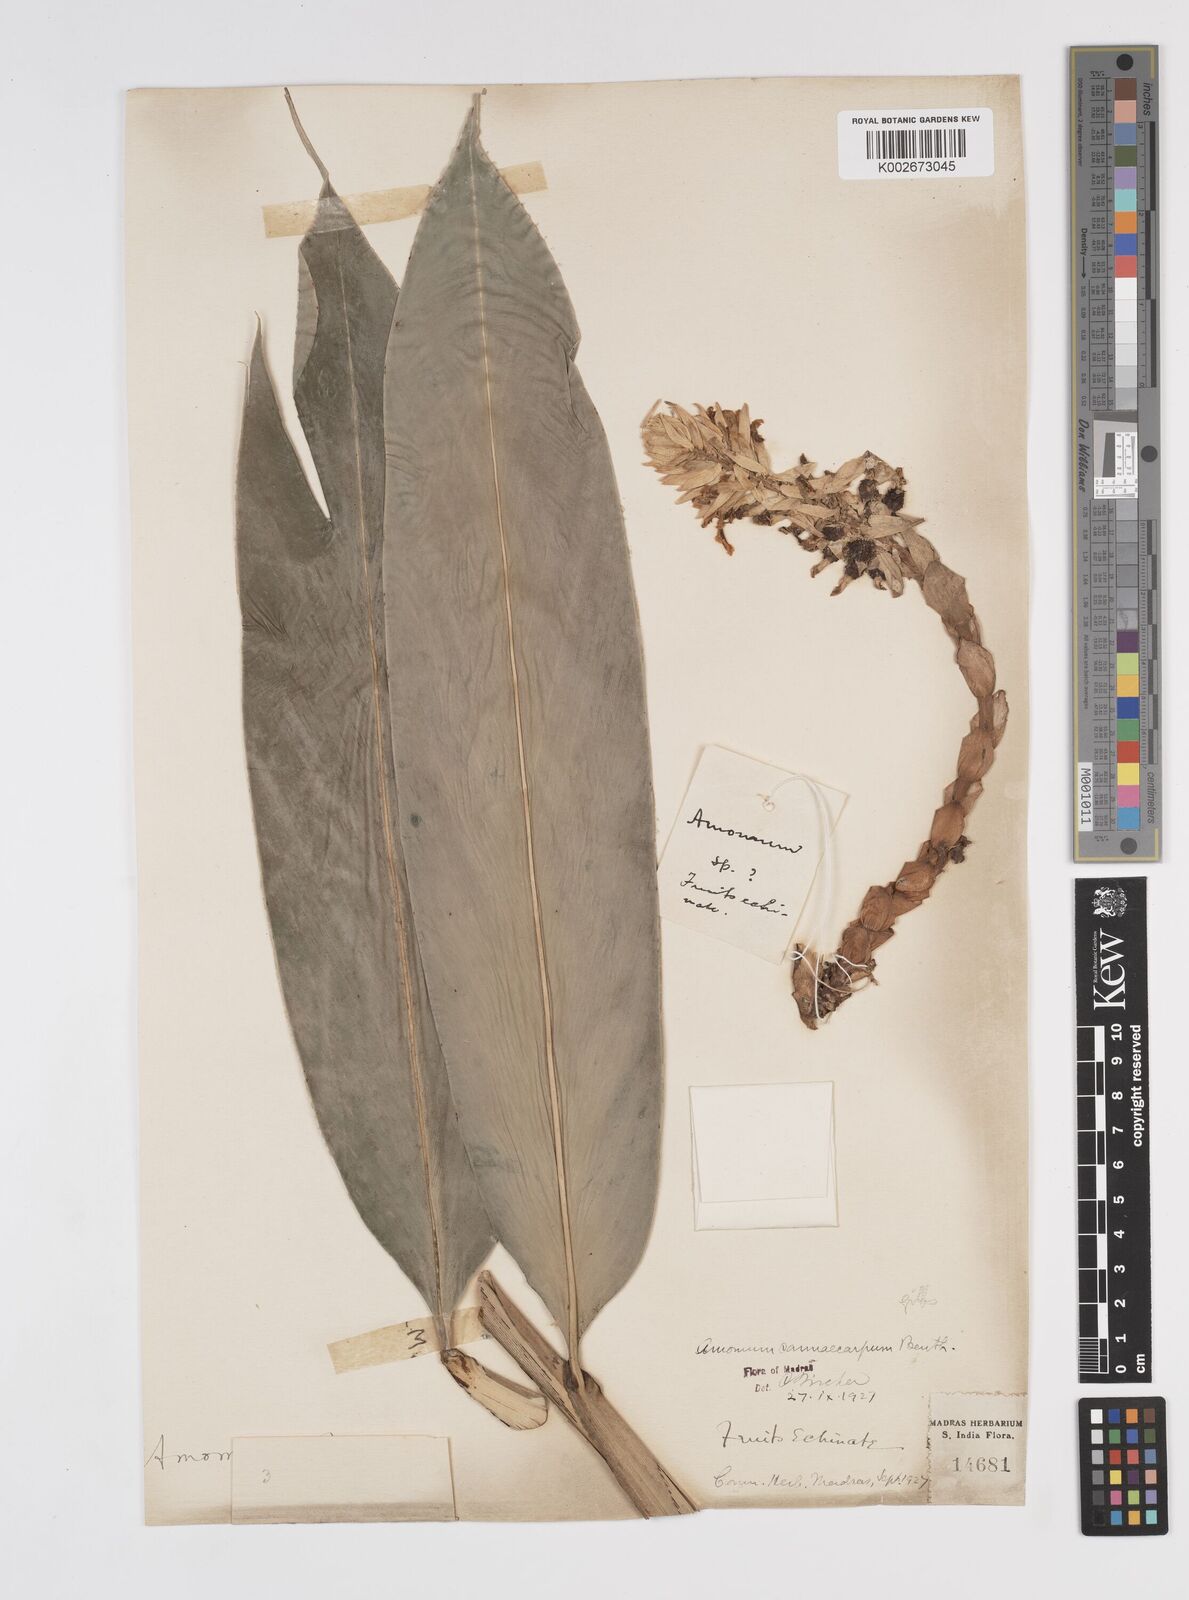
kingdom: Plantae
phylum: Tracheophyta
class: Liliopsida
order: Zingiberales
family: Zingiberaceae
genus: Meistera
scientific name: Meistera cannicarpa
